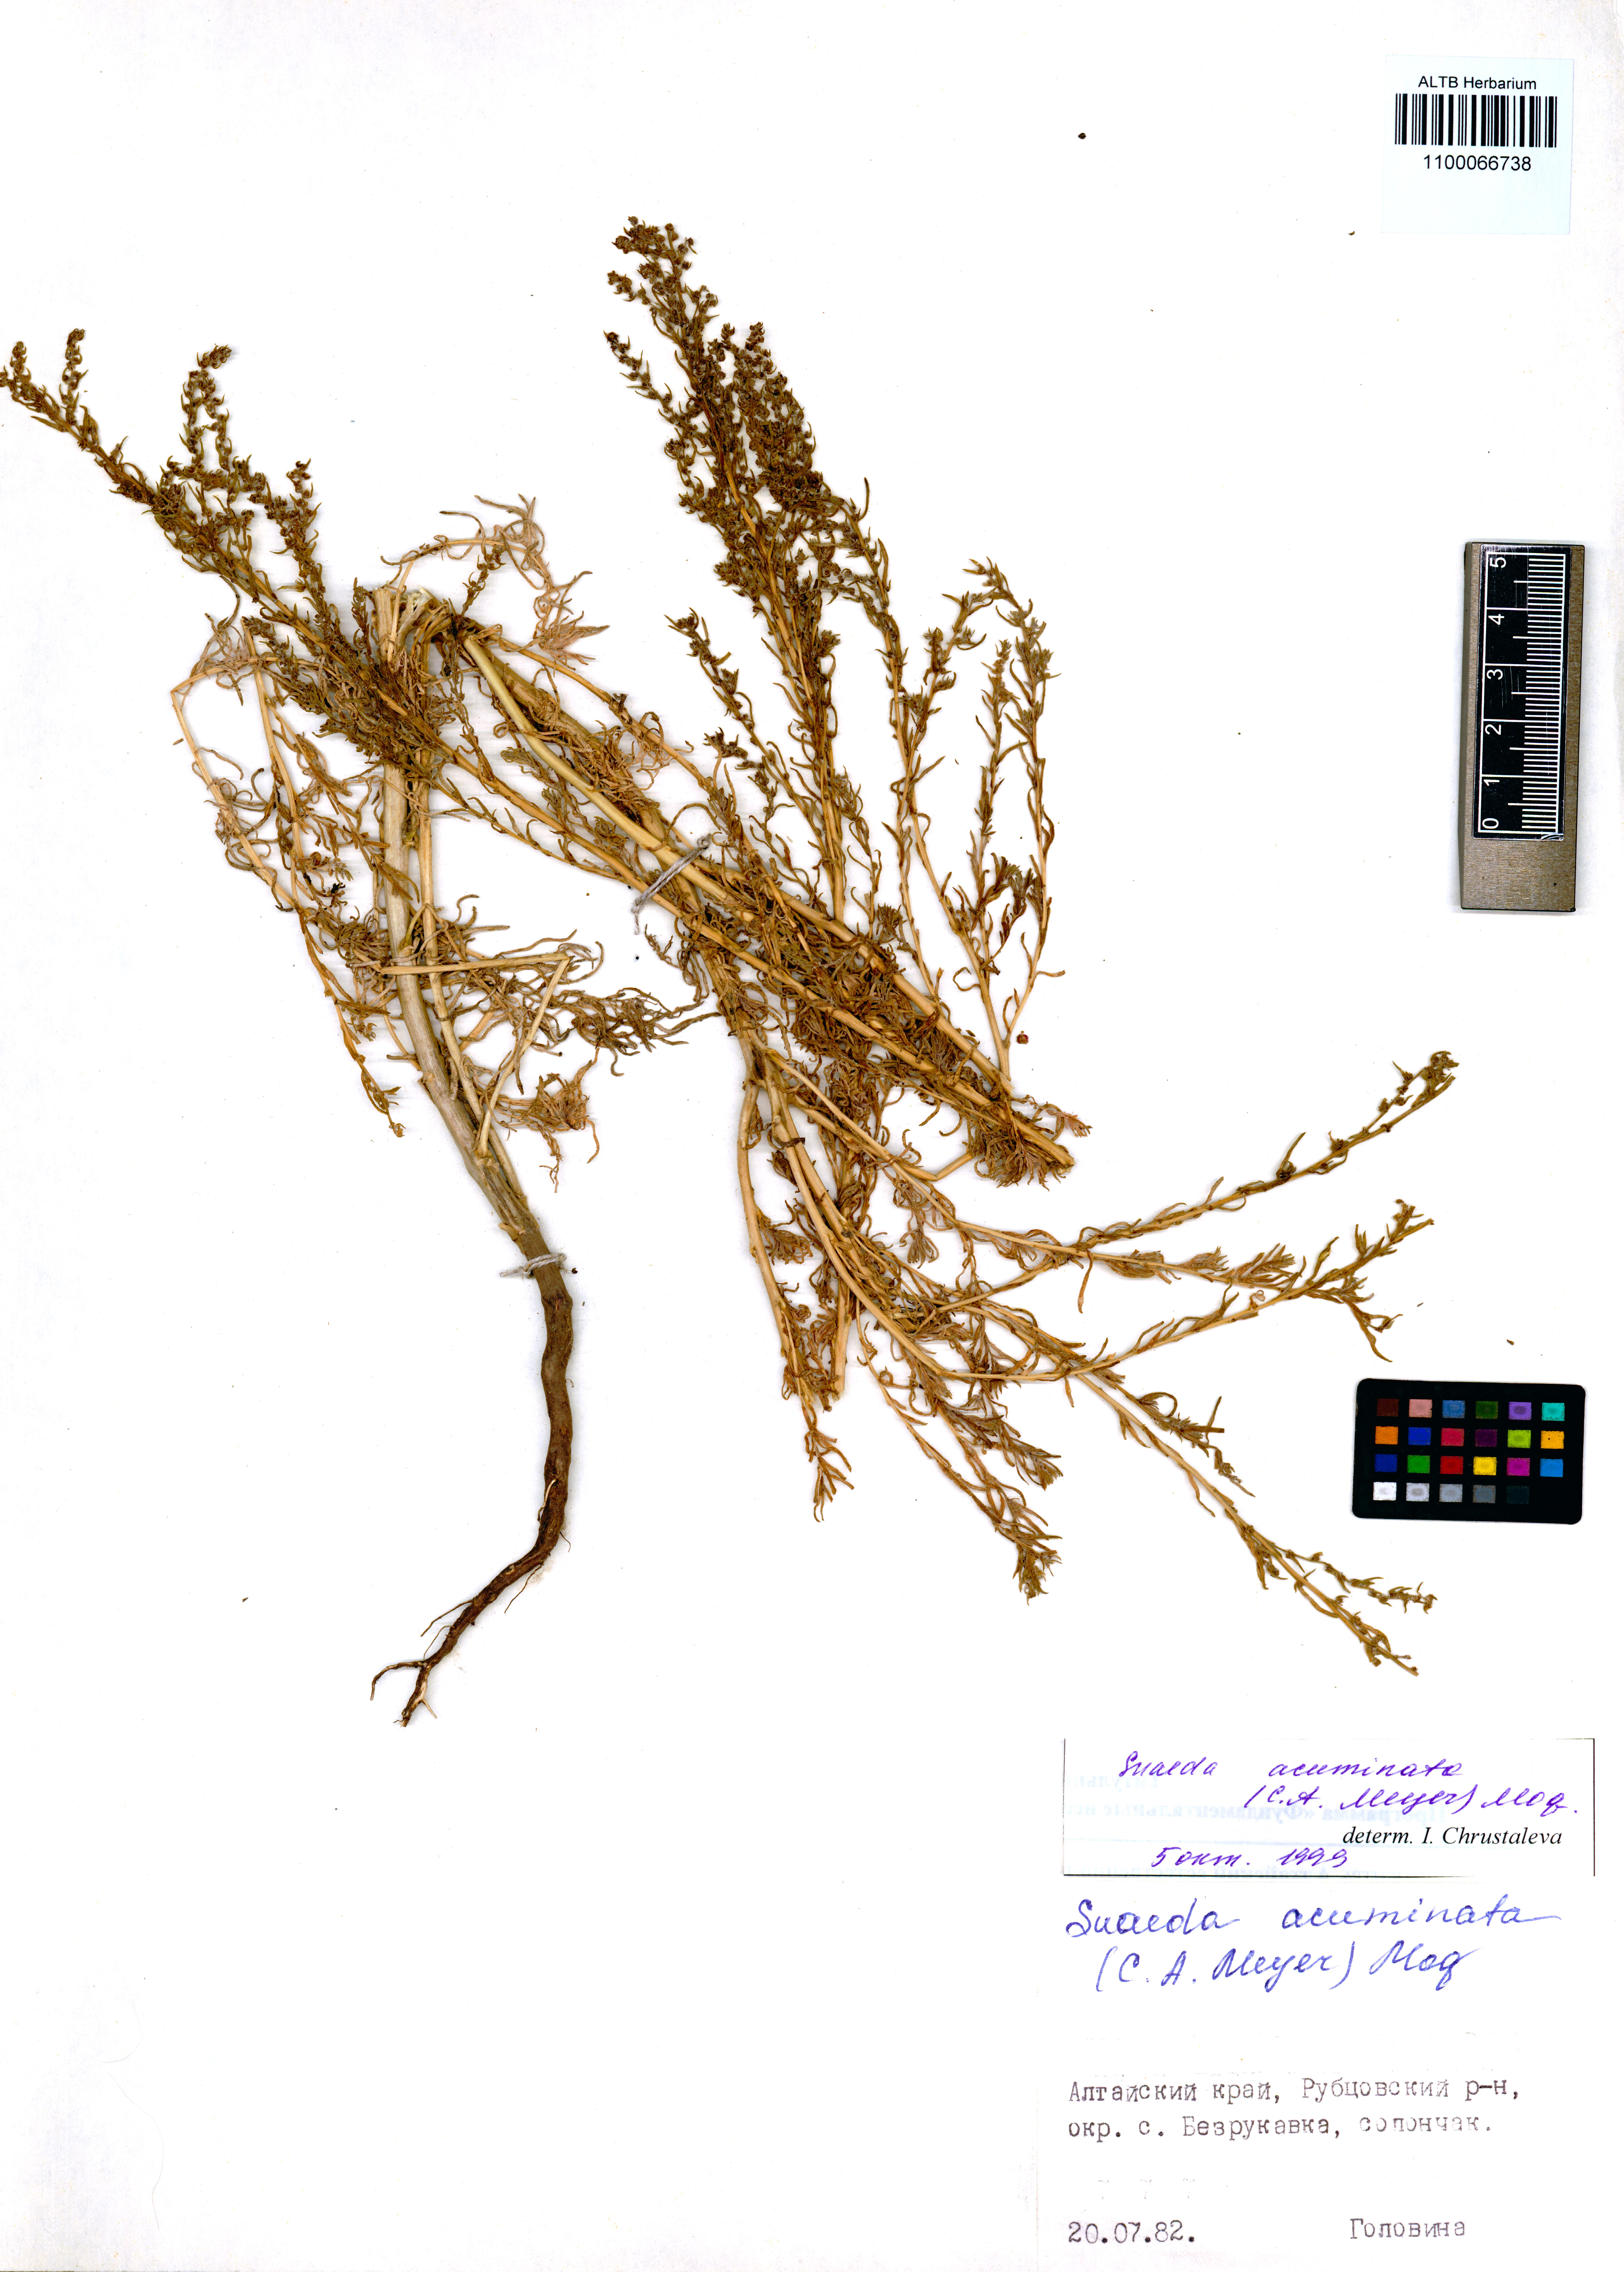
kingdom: Plantae
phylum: Tracheophyta
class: Magnoliopsida
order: Caryophyllales
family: Amaranthaceae
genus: Suaeda
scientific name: Suaeda acuminata
